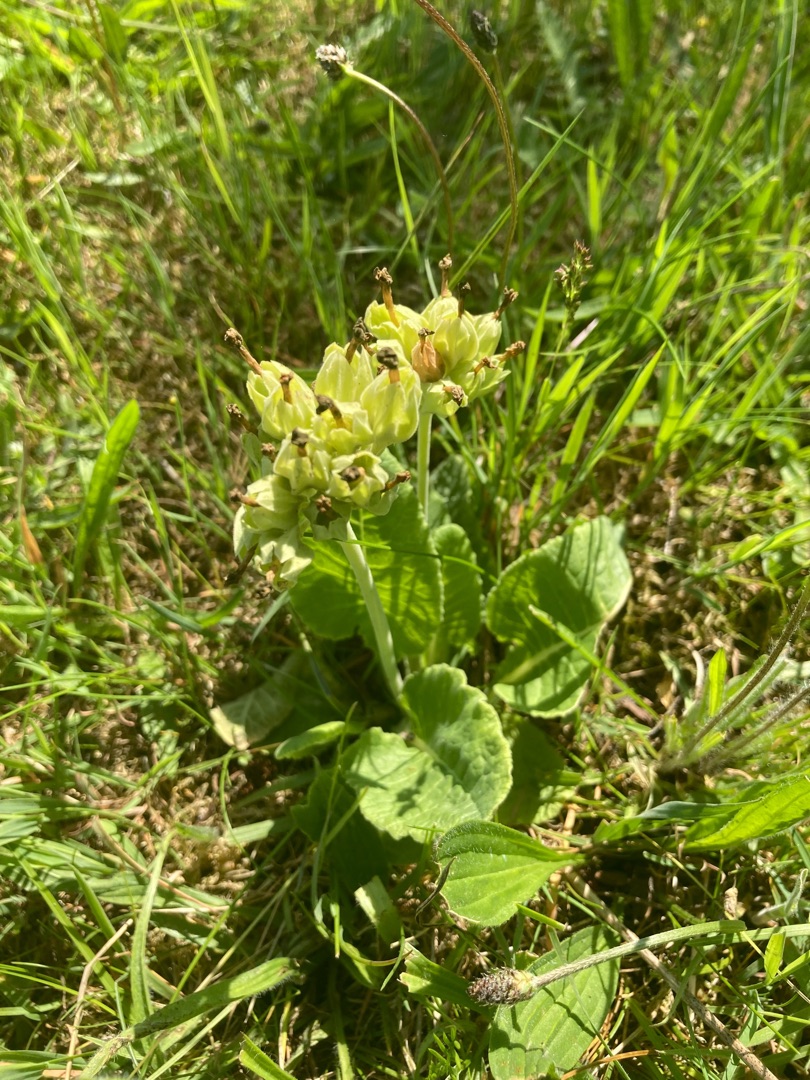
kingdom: Plantae
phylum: Tracheophyta
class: Magnoliopsida
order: Ericales
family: Primulaceae
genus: Primula
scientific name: Primula veris
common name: Hulkravet kodriver
